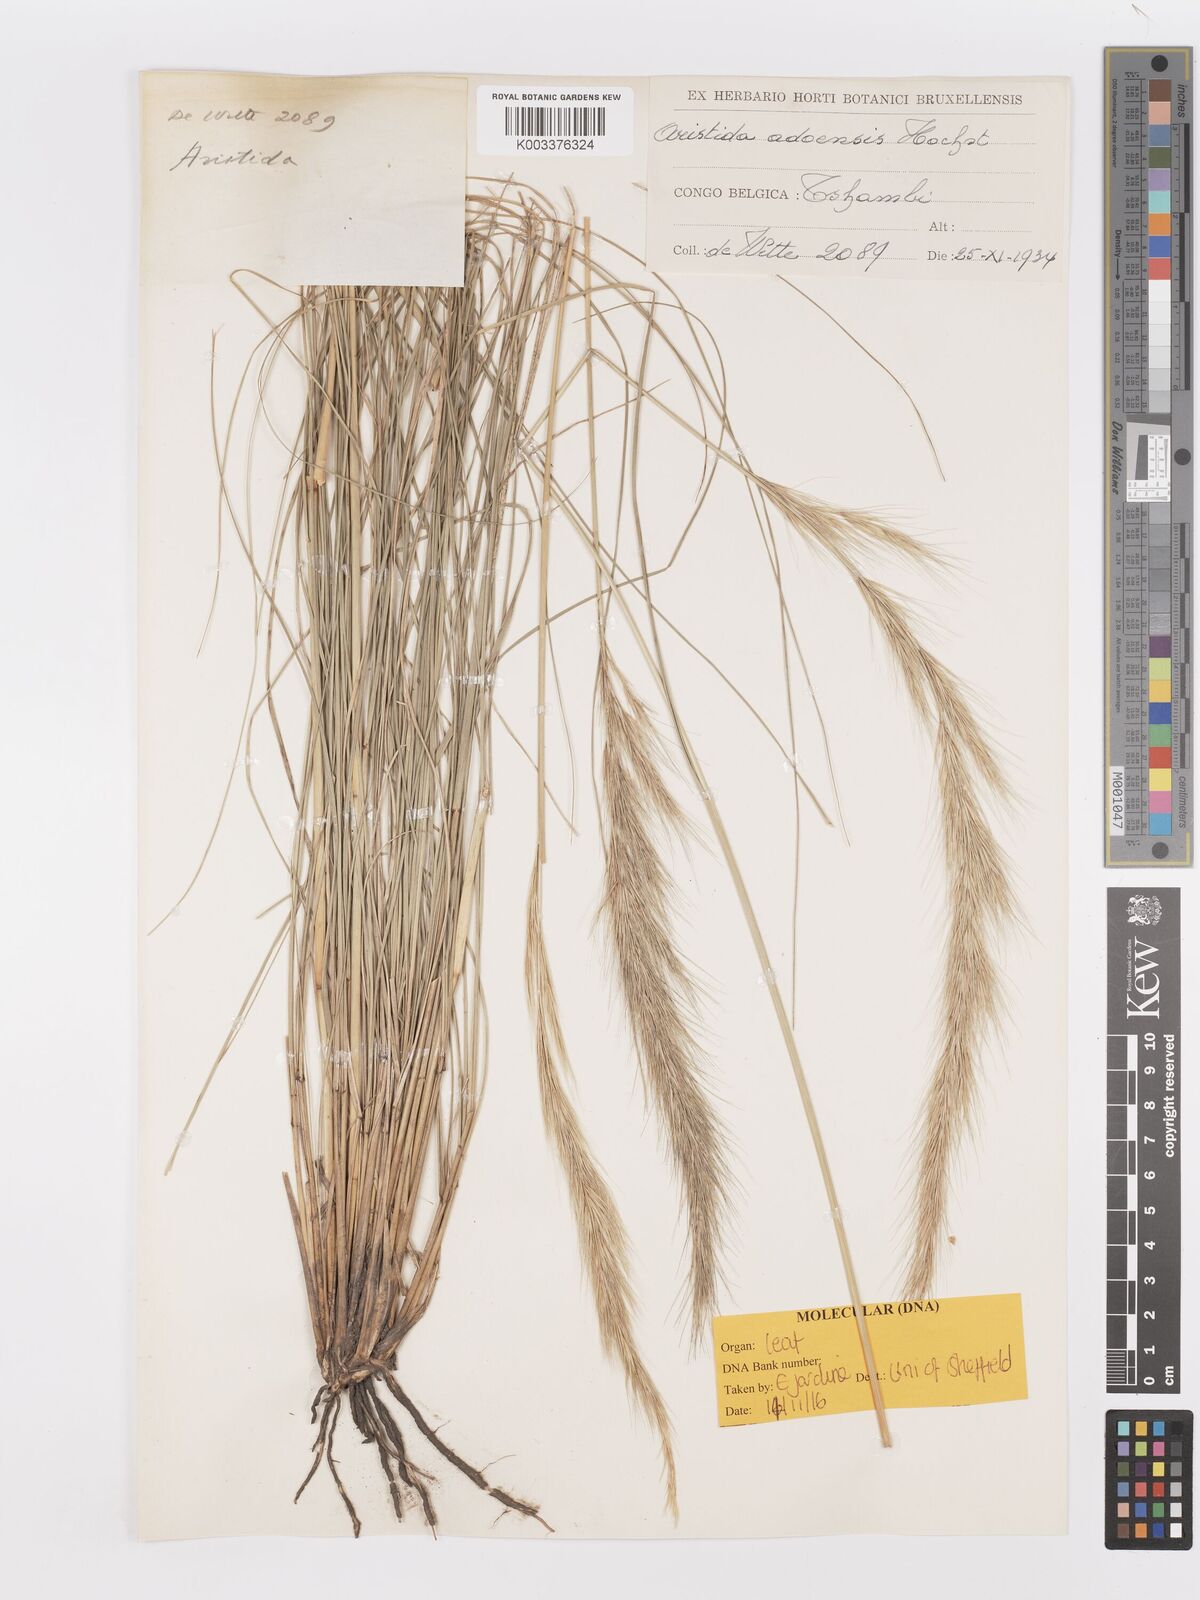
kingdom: Plantae
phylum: Tracheophyta
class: Liliopsida
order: Poales
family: Poaceae
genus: Aristida
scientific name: Aristida adoensis
